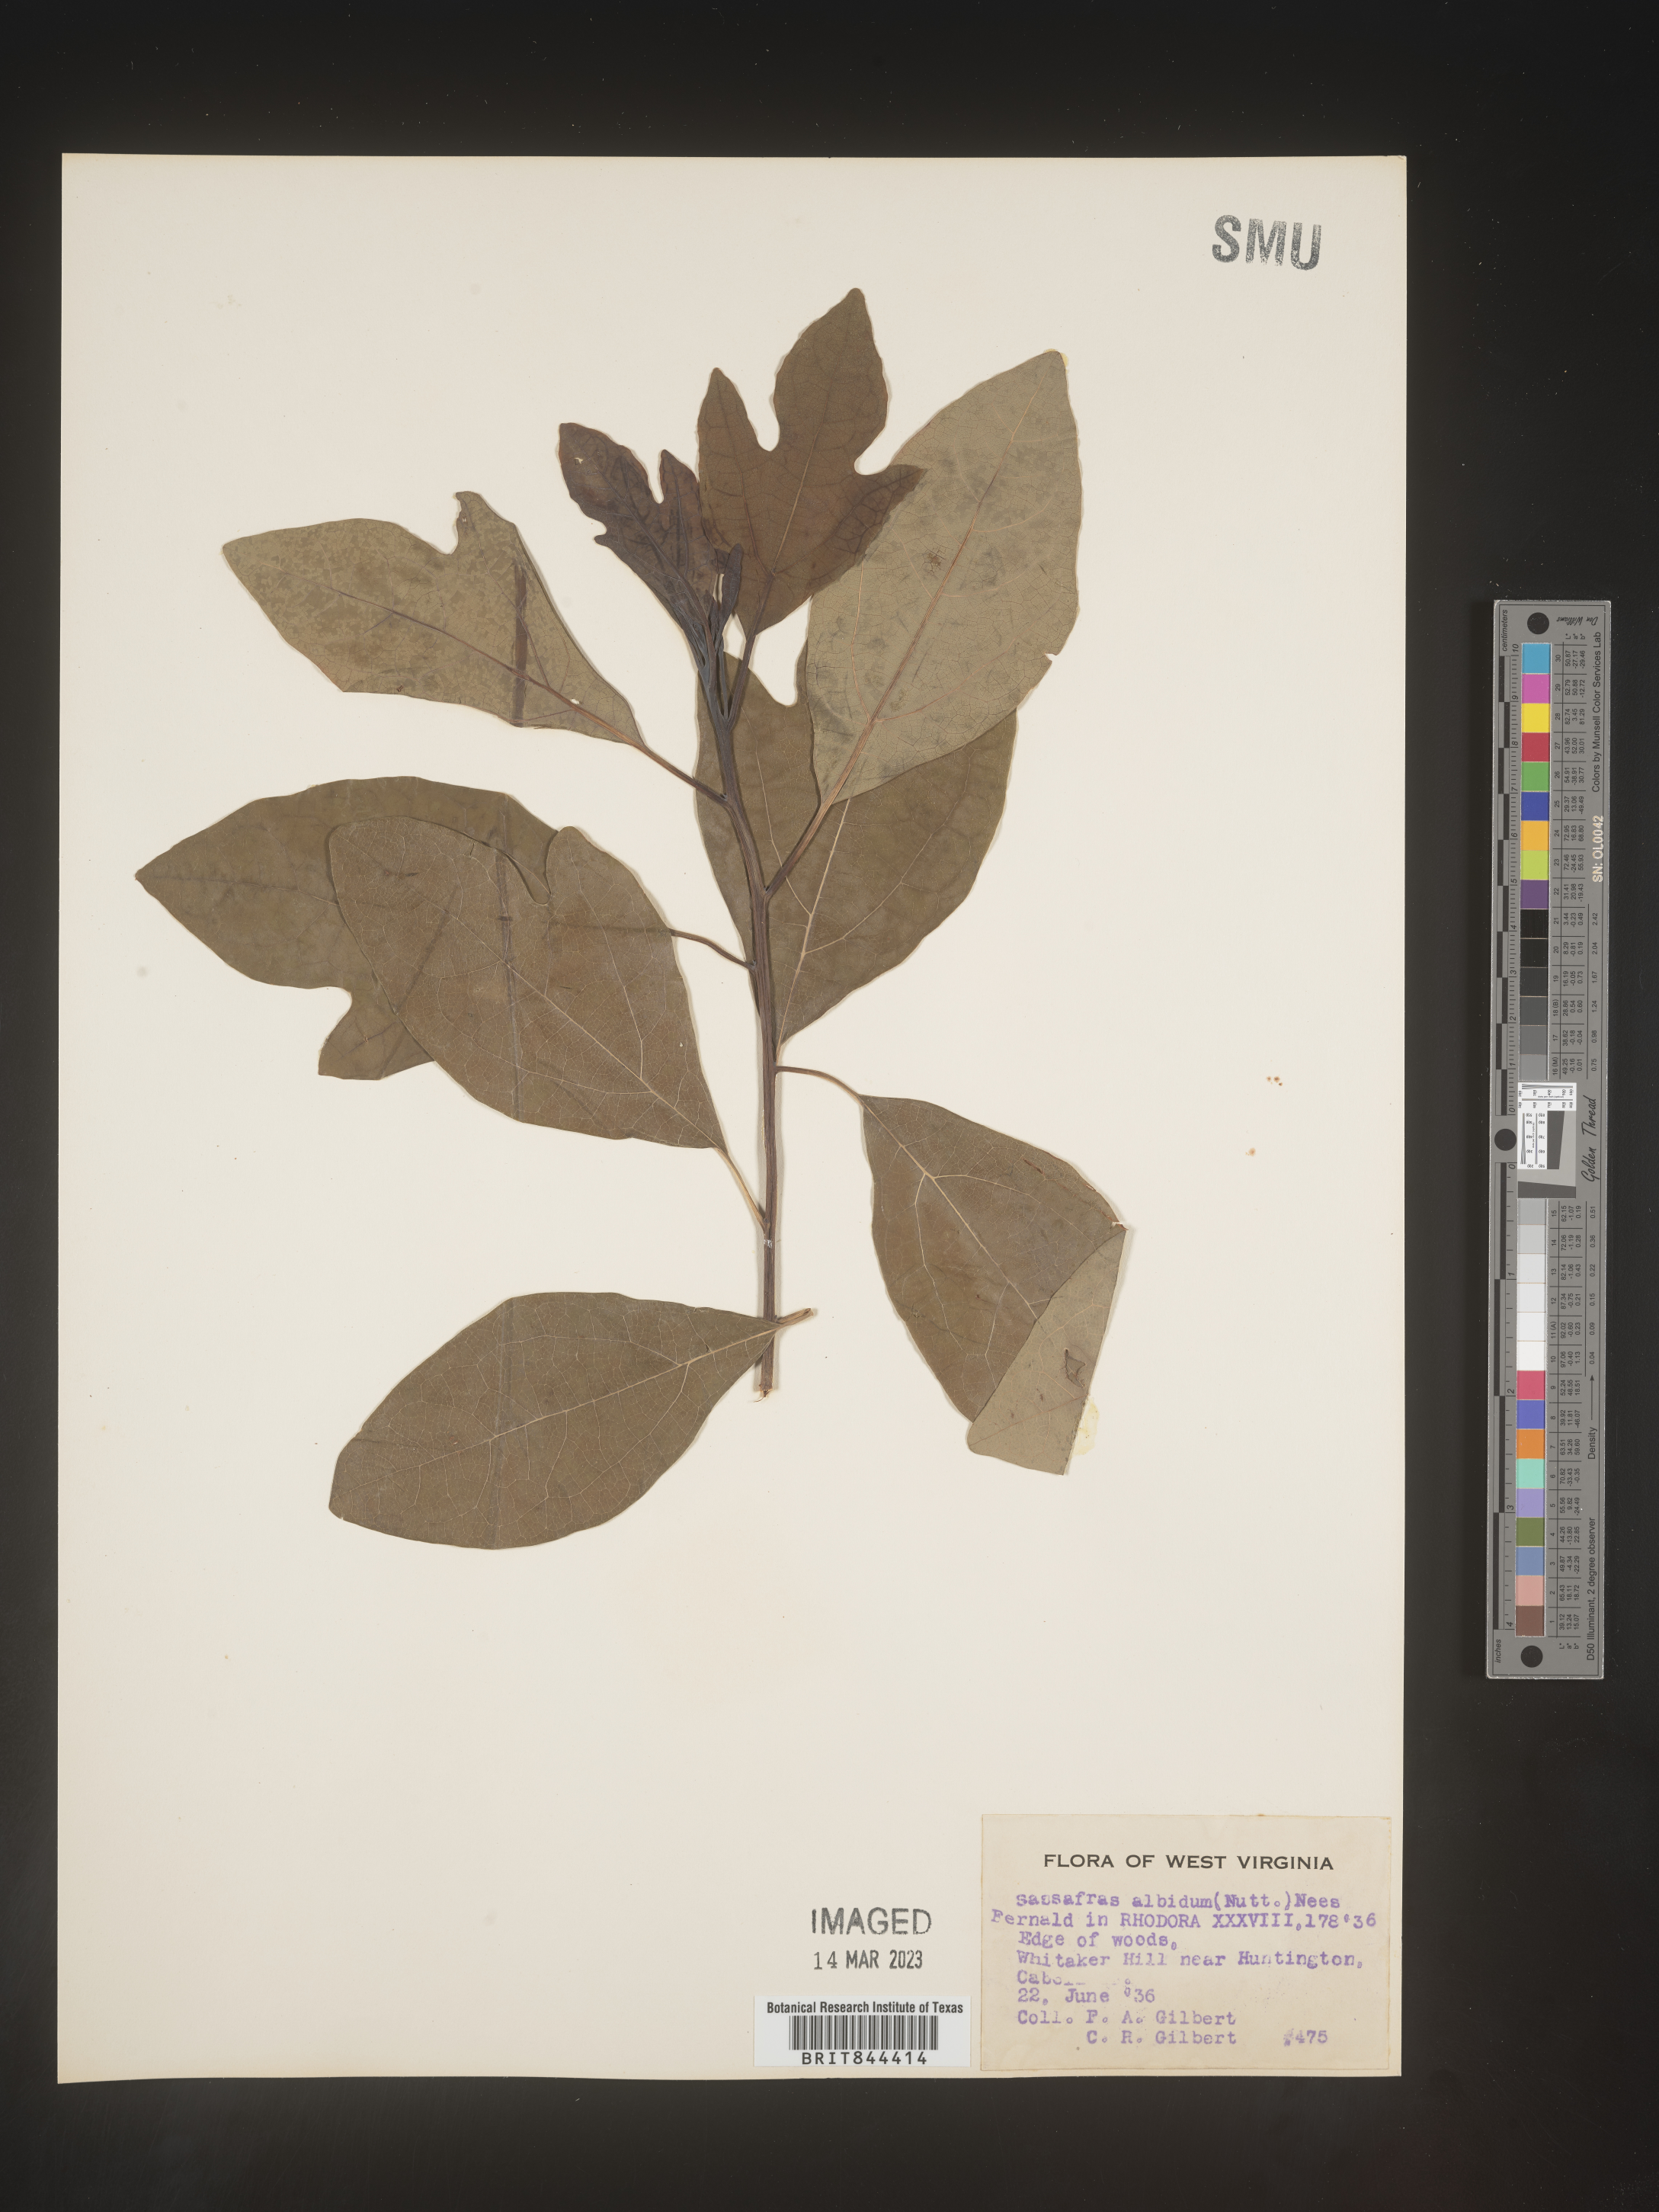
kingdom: Plantae
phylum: Tracheophyta
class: Magnoliopsida
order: Laurales
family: Lauraceae
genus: Sassafras
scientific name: Sassafras albidum
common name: Sassafras
